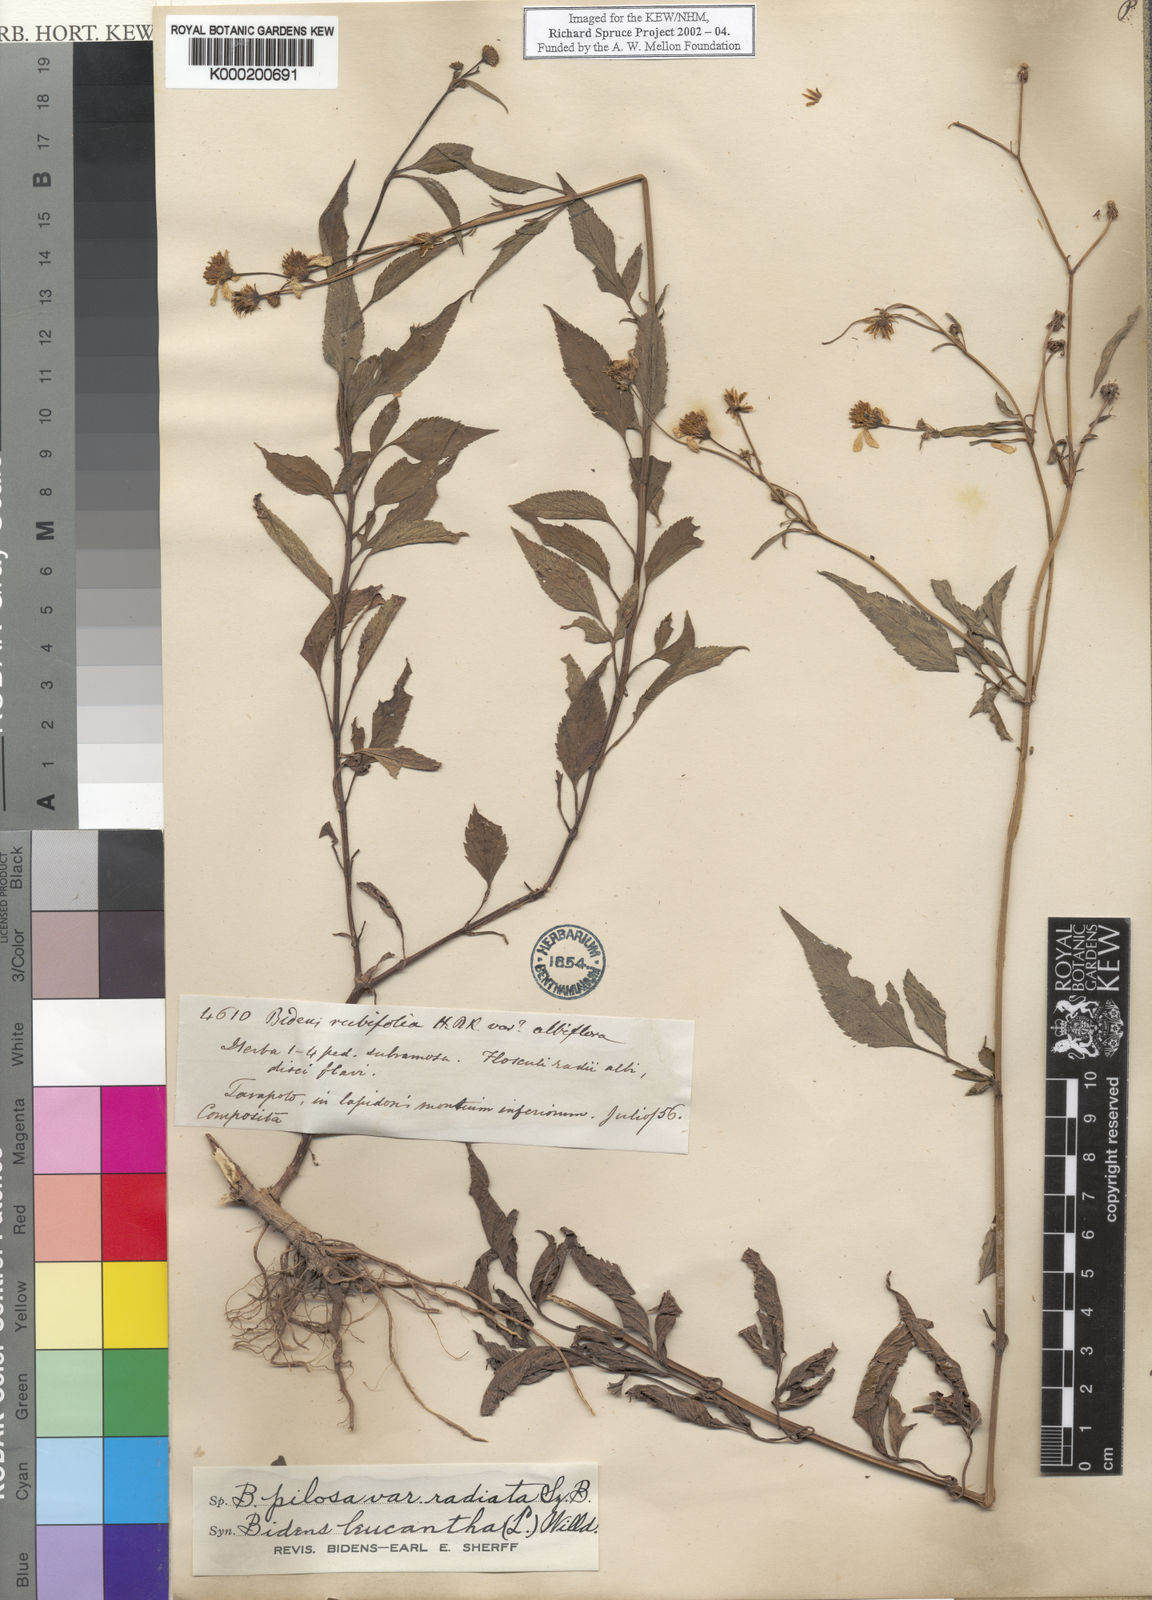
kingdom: Plantae
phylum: Tracheophyta
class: Magnoliopsida
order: Asterales
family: Asteraceae
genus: Bidens
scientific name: Bidens pilosa
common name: Black-jack
